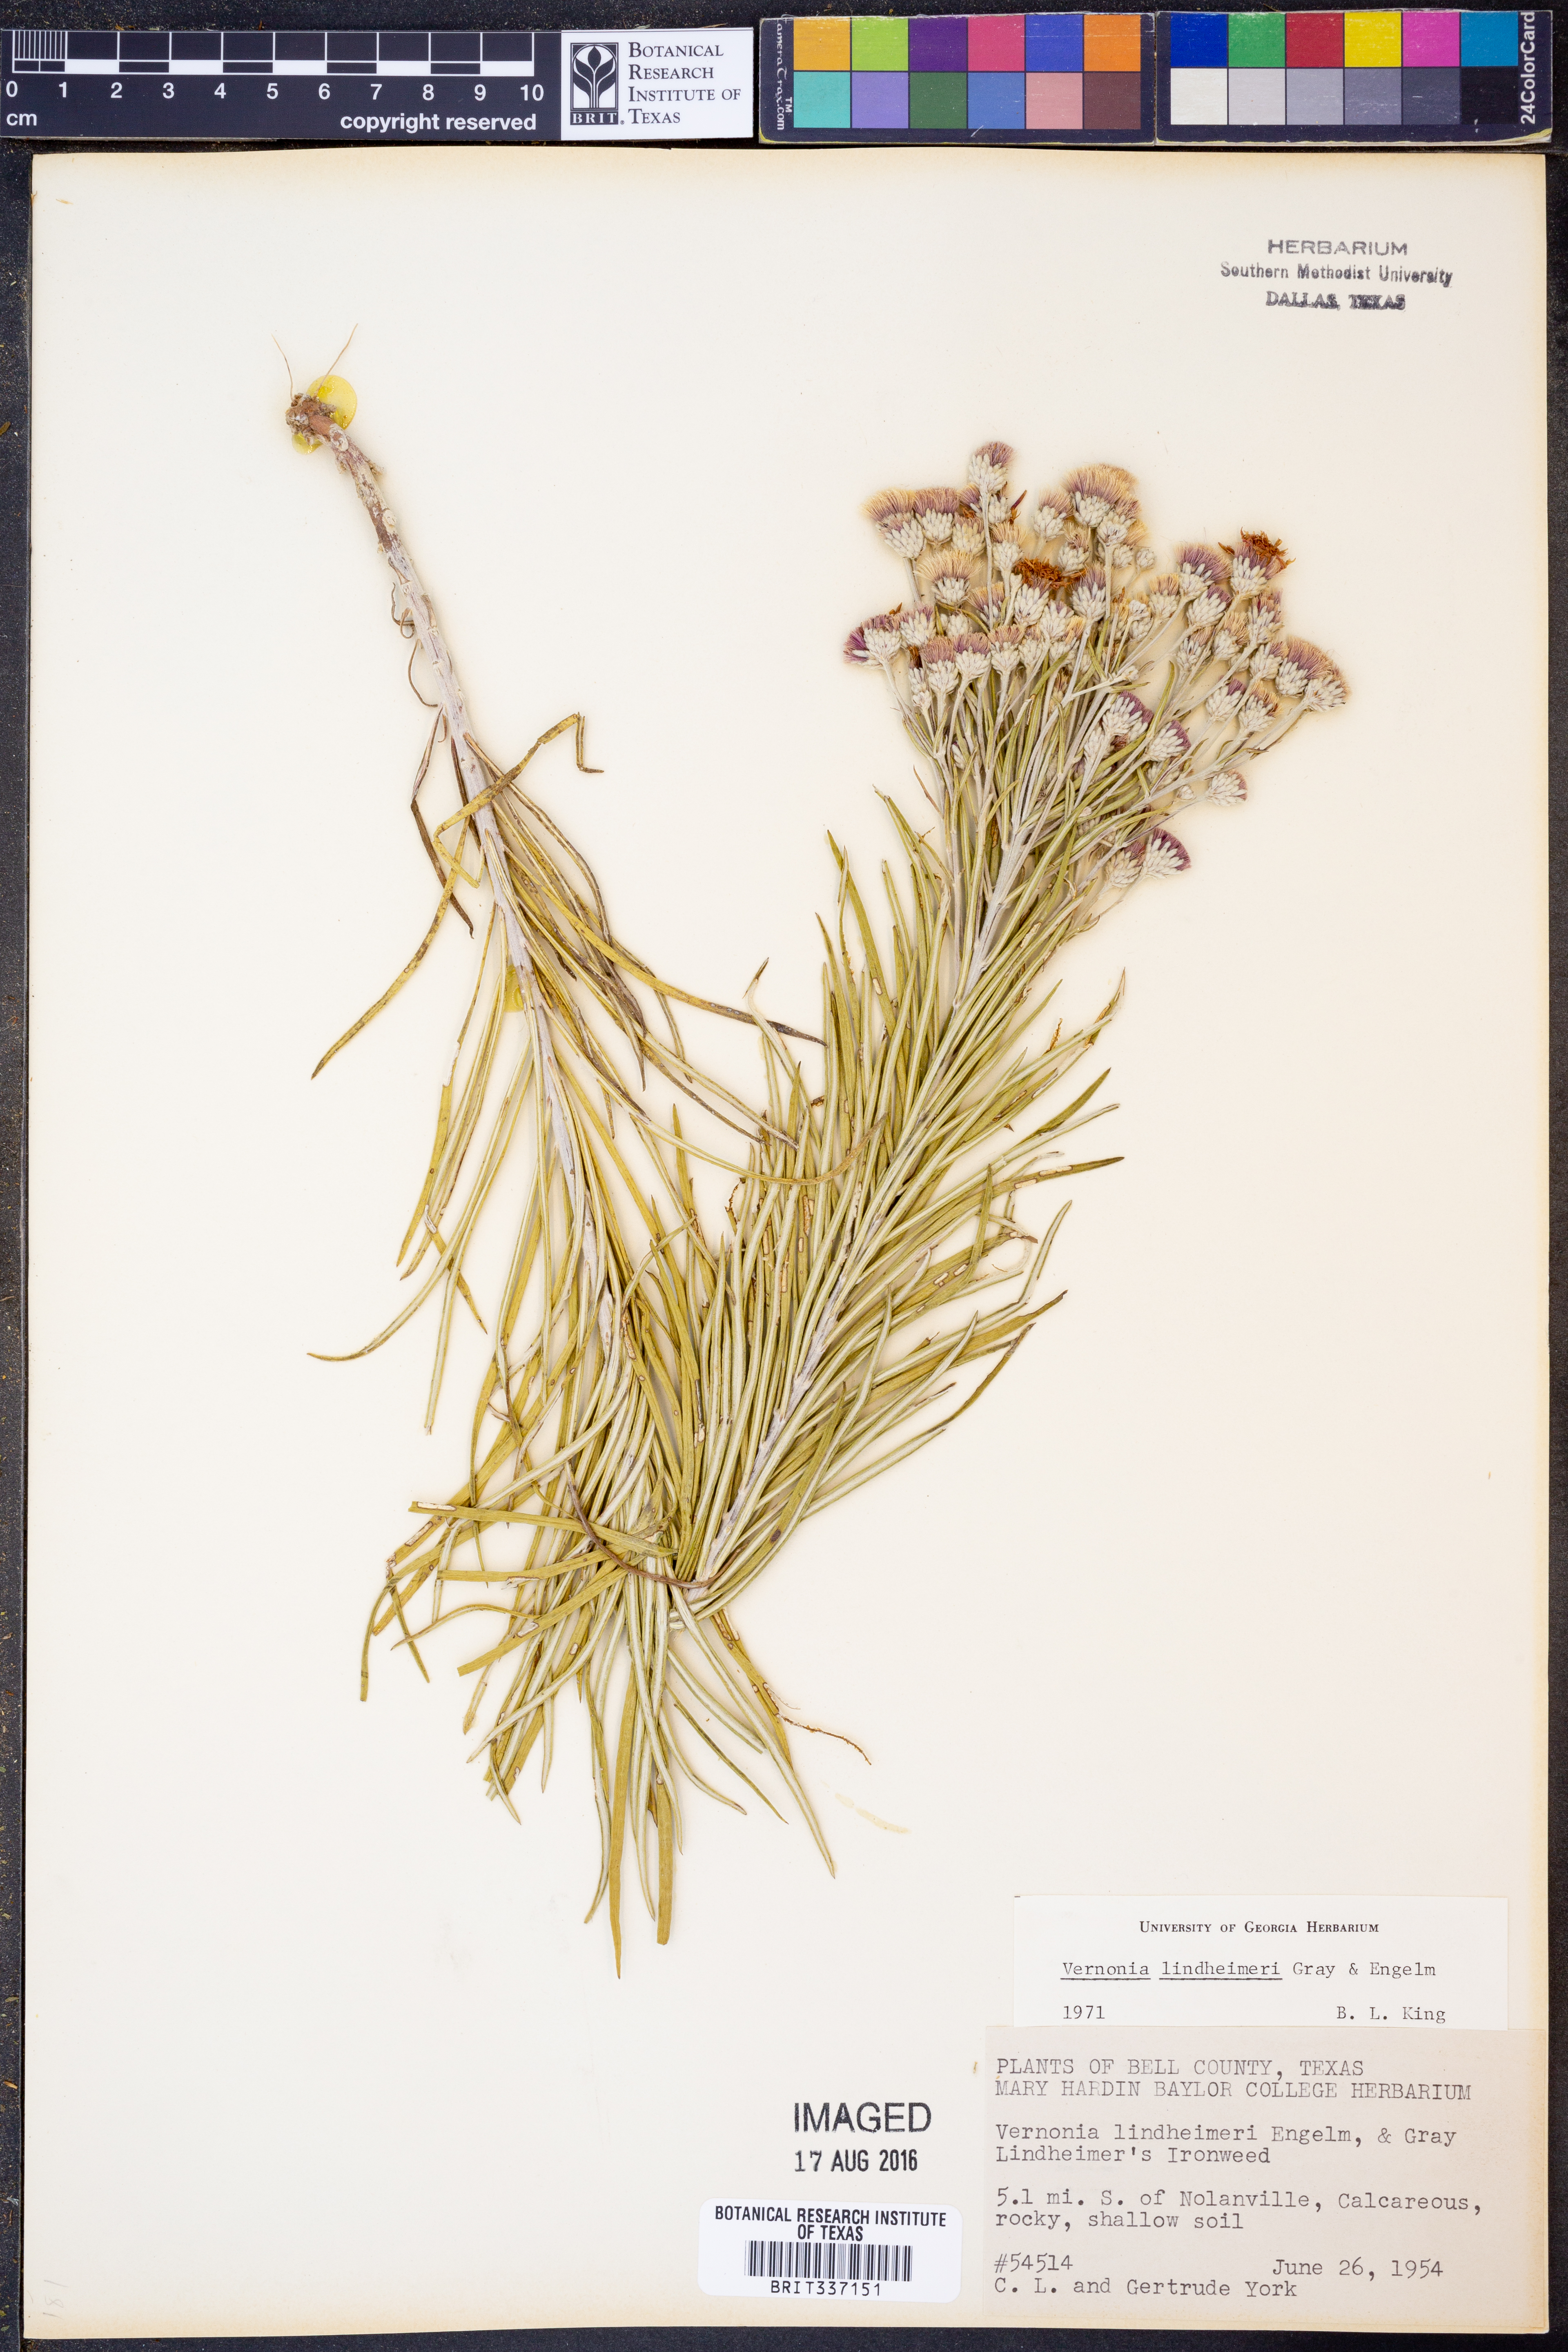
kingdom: Plantae
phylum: Tracheophyta
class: Magnoliopsida
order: Asterales
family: Asteraceae
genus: Vernonia
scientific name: Vernonia lindheimeri
